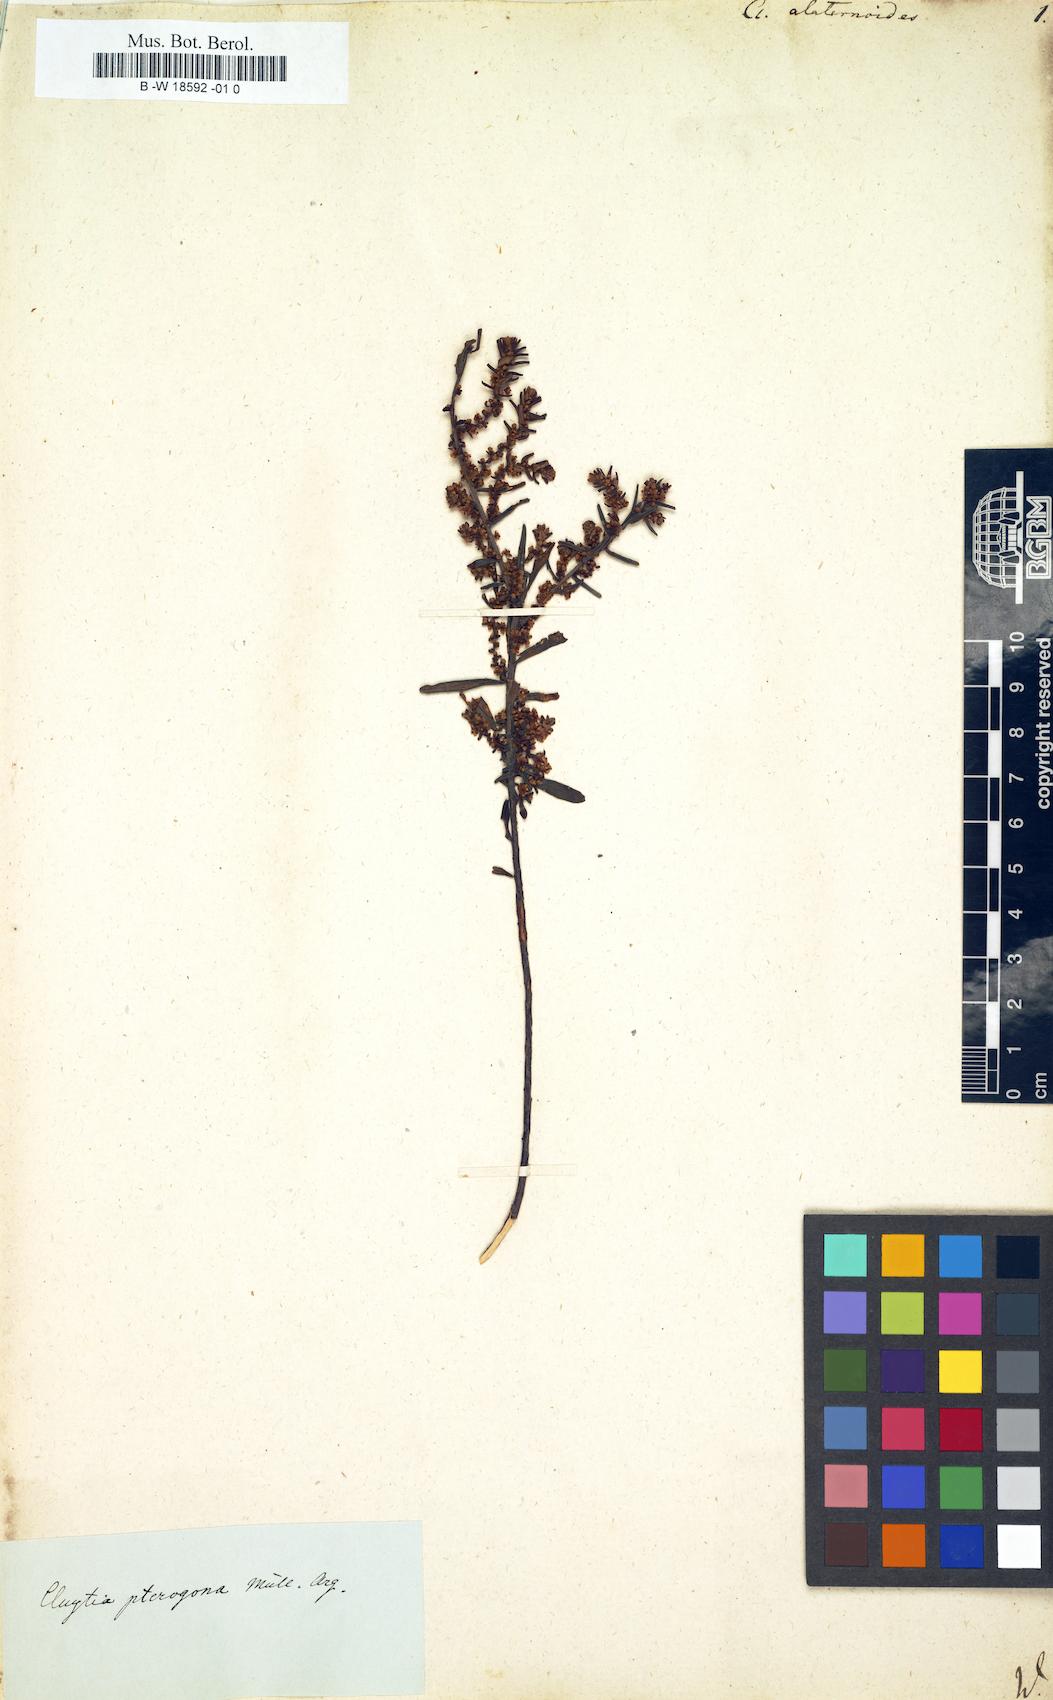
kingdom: Plantae
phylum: Tracheophyta
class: Magnoliopsida
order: Malpighiales
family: Peraceae
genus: Clutia
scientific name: Clutia
